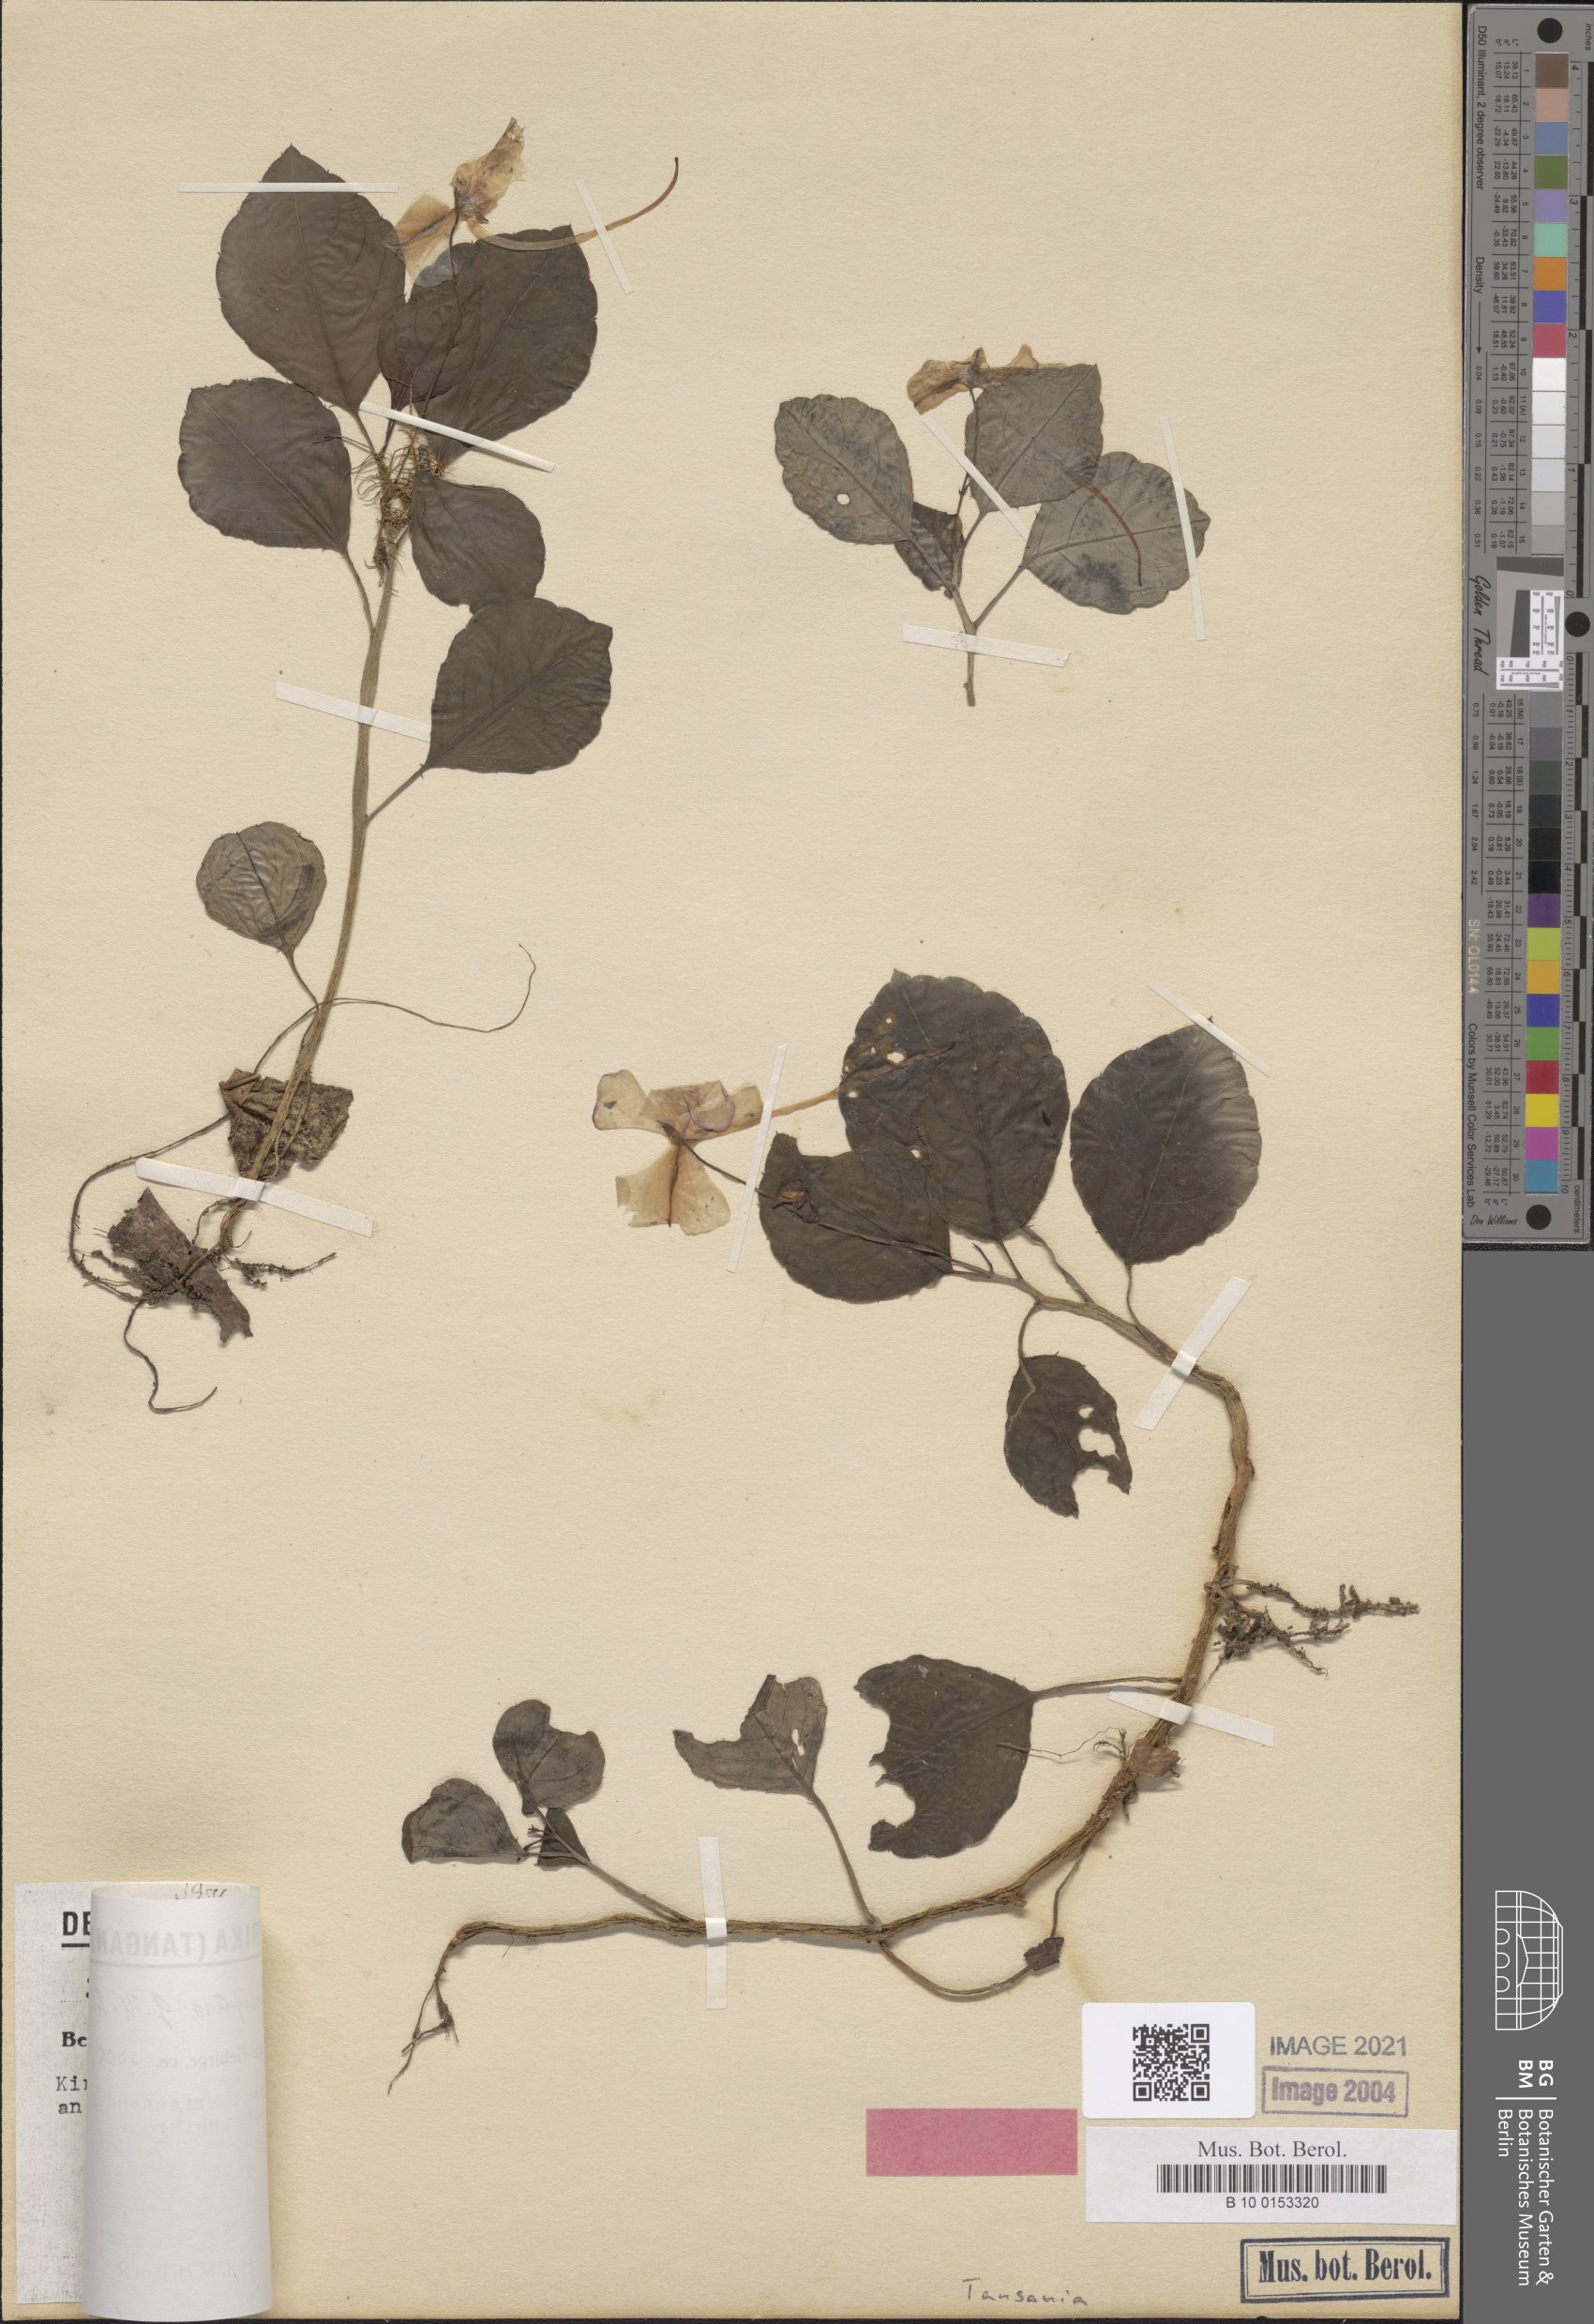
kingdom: Plantae
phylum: Tracheophyta
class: Magnoliopsida
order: Ericales
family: Balsaminaceae
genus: Impatiens
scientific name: Impatiens humifusa
